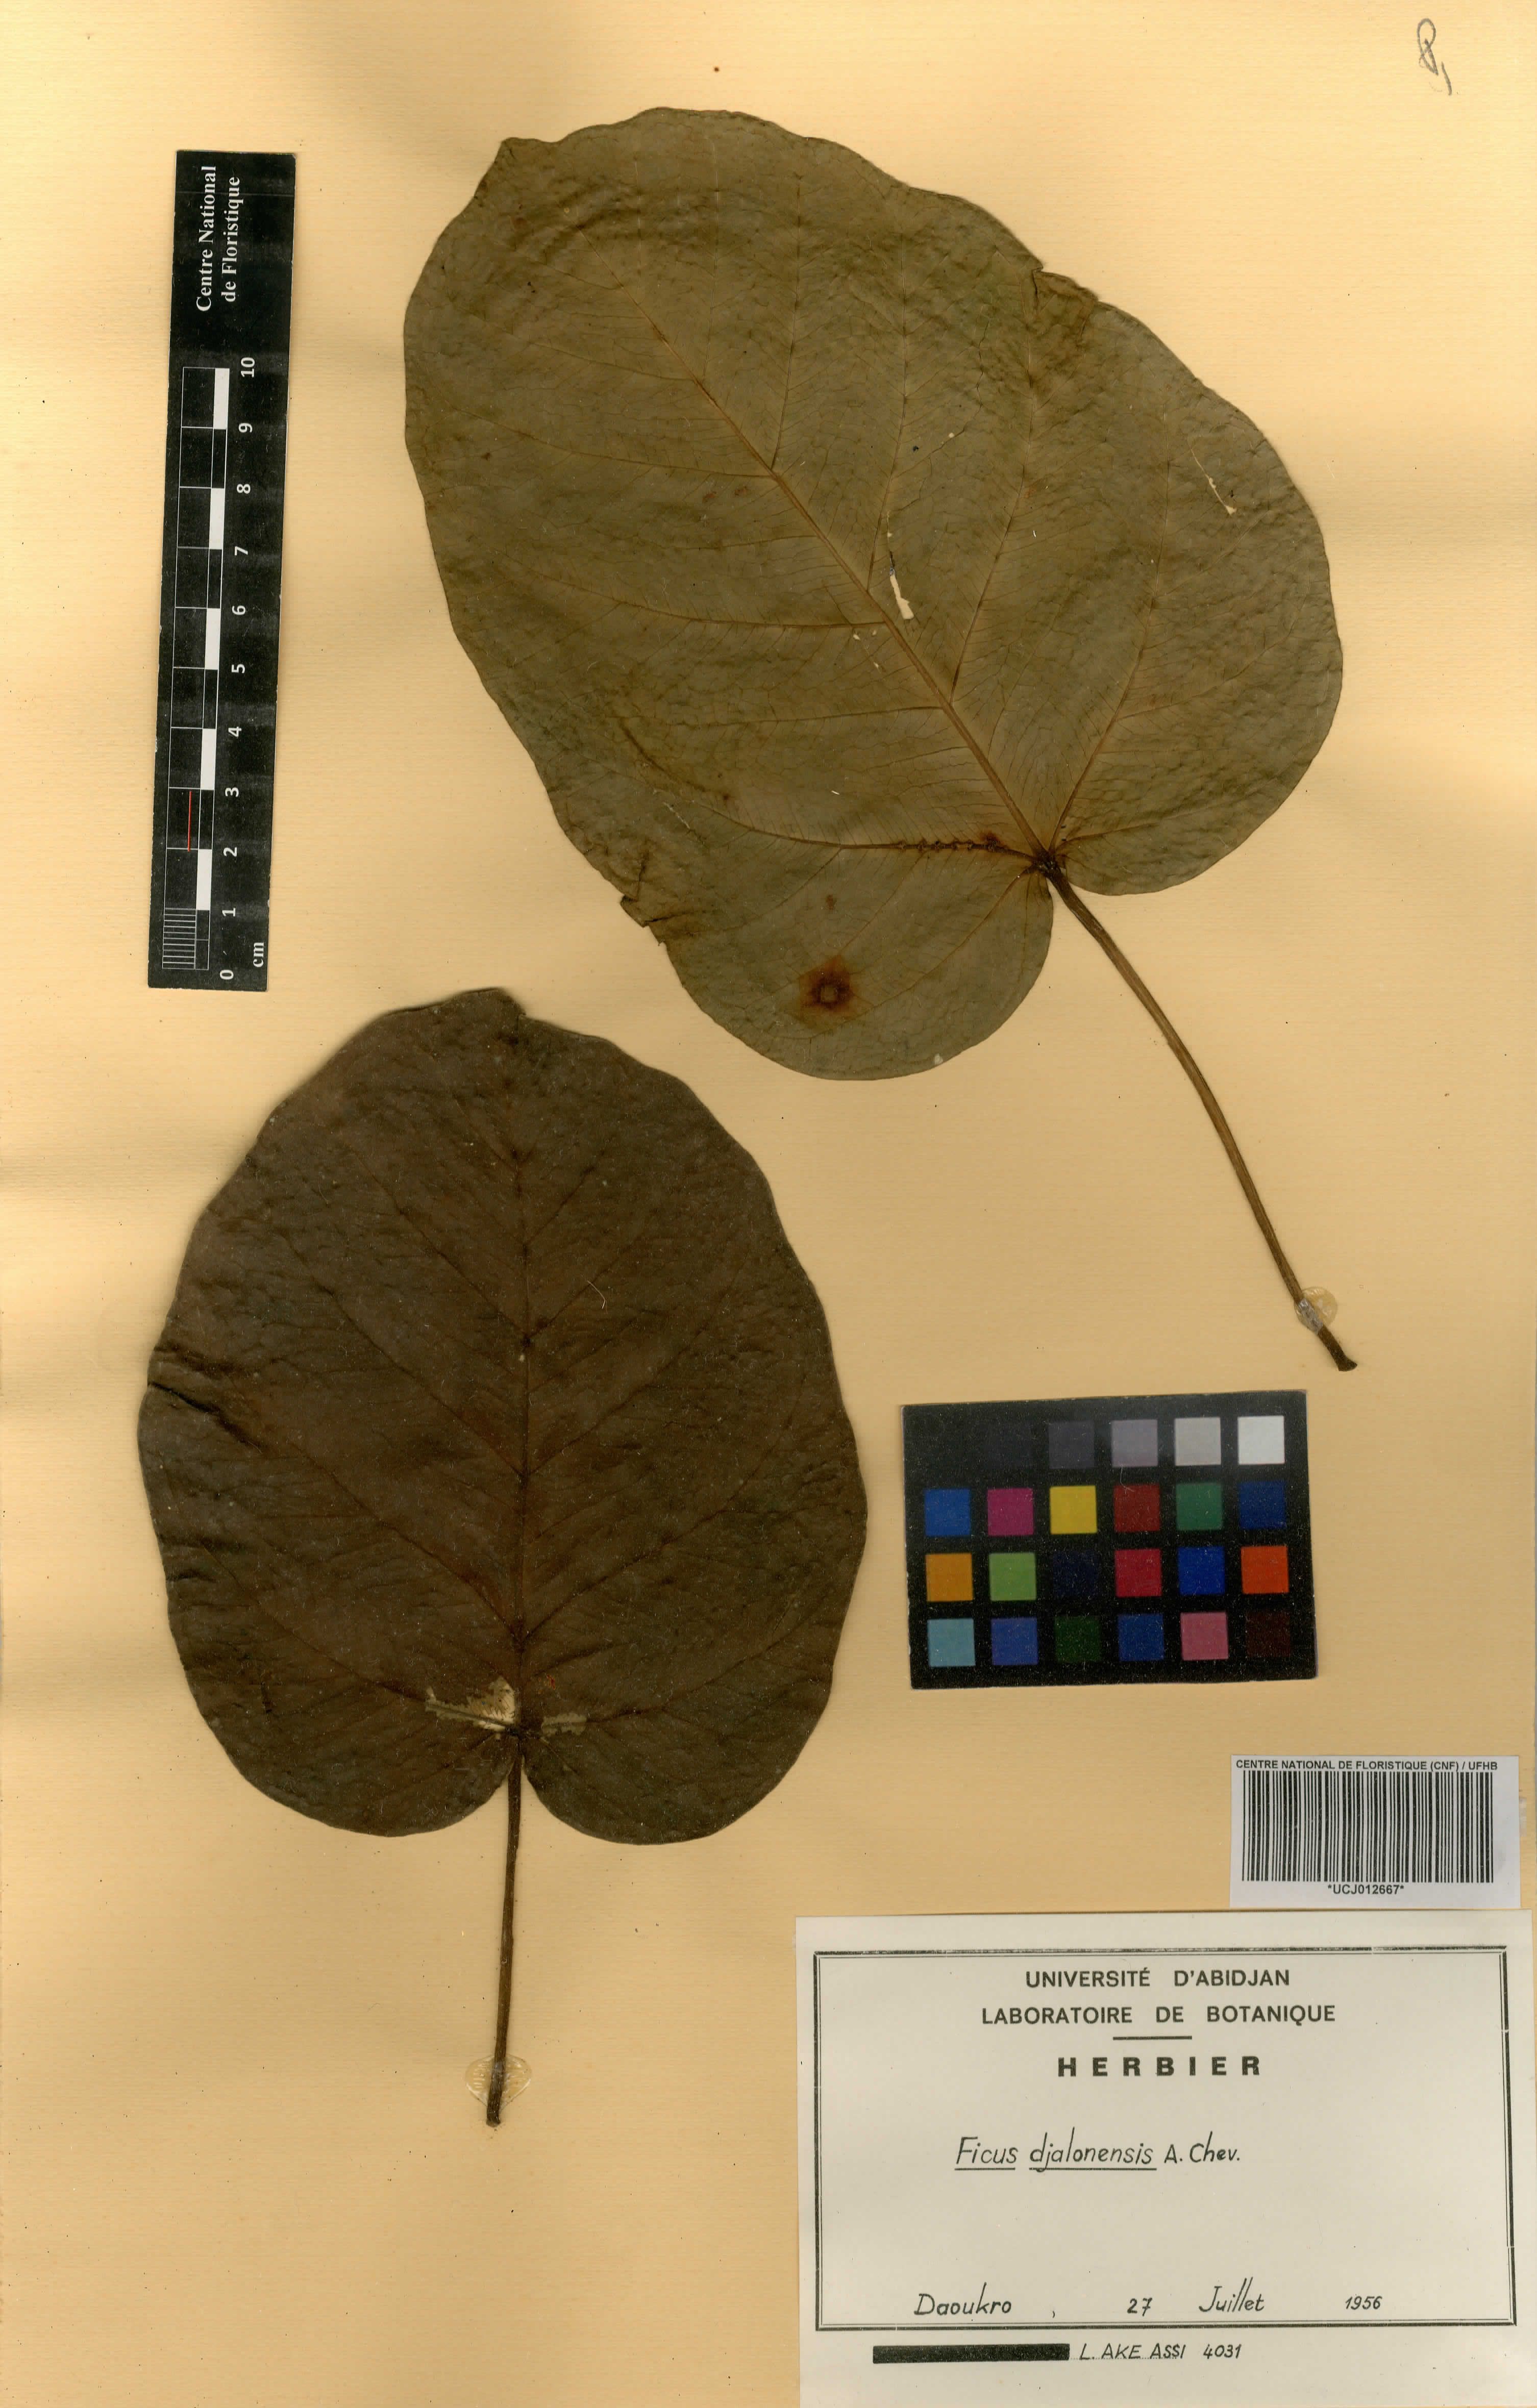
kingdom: Plantae
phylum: Tracheophyta
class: Magnoliopsida
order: Rosales
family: Moraceae
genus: Ficus
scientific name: Ficus calyptrata
